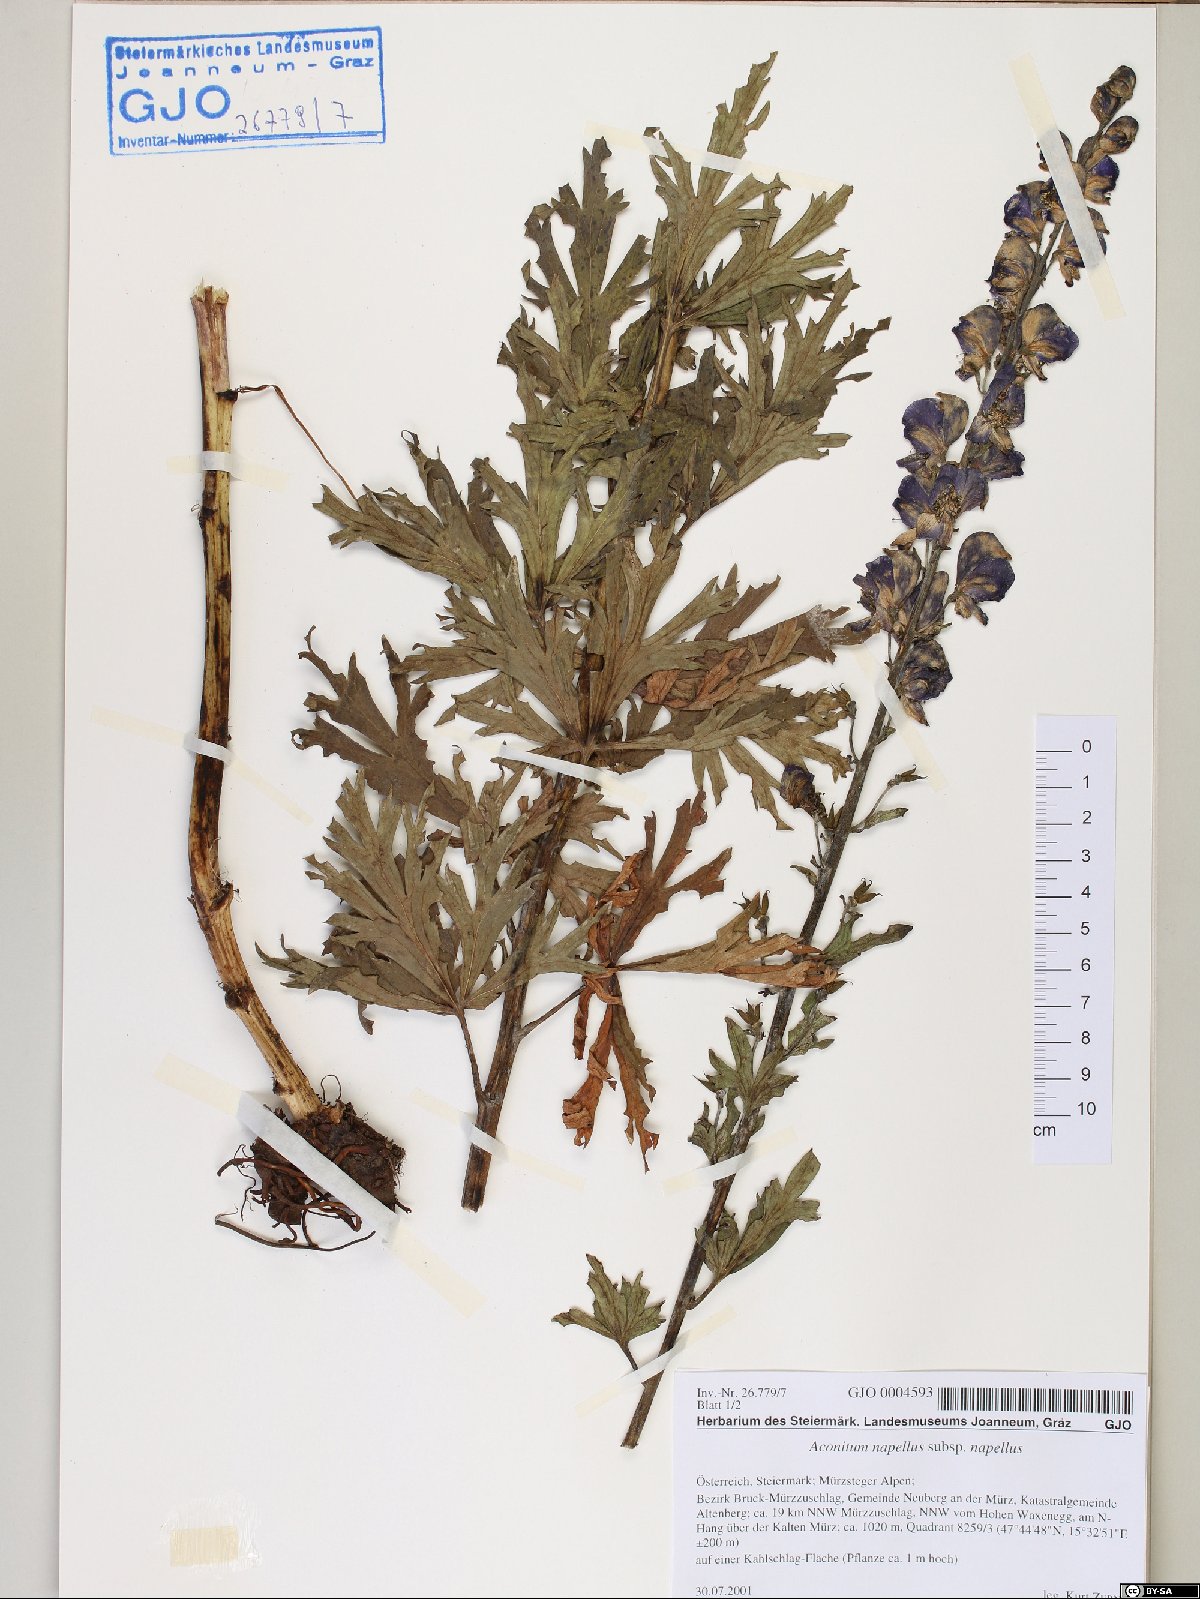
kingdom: Plantae
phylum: Tracheophyta
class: Magnoliopsida
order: Ranunculales
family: Ranunculaceae
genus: Aconitum
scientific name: Aconitum napellus
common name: Garden monkshood
